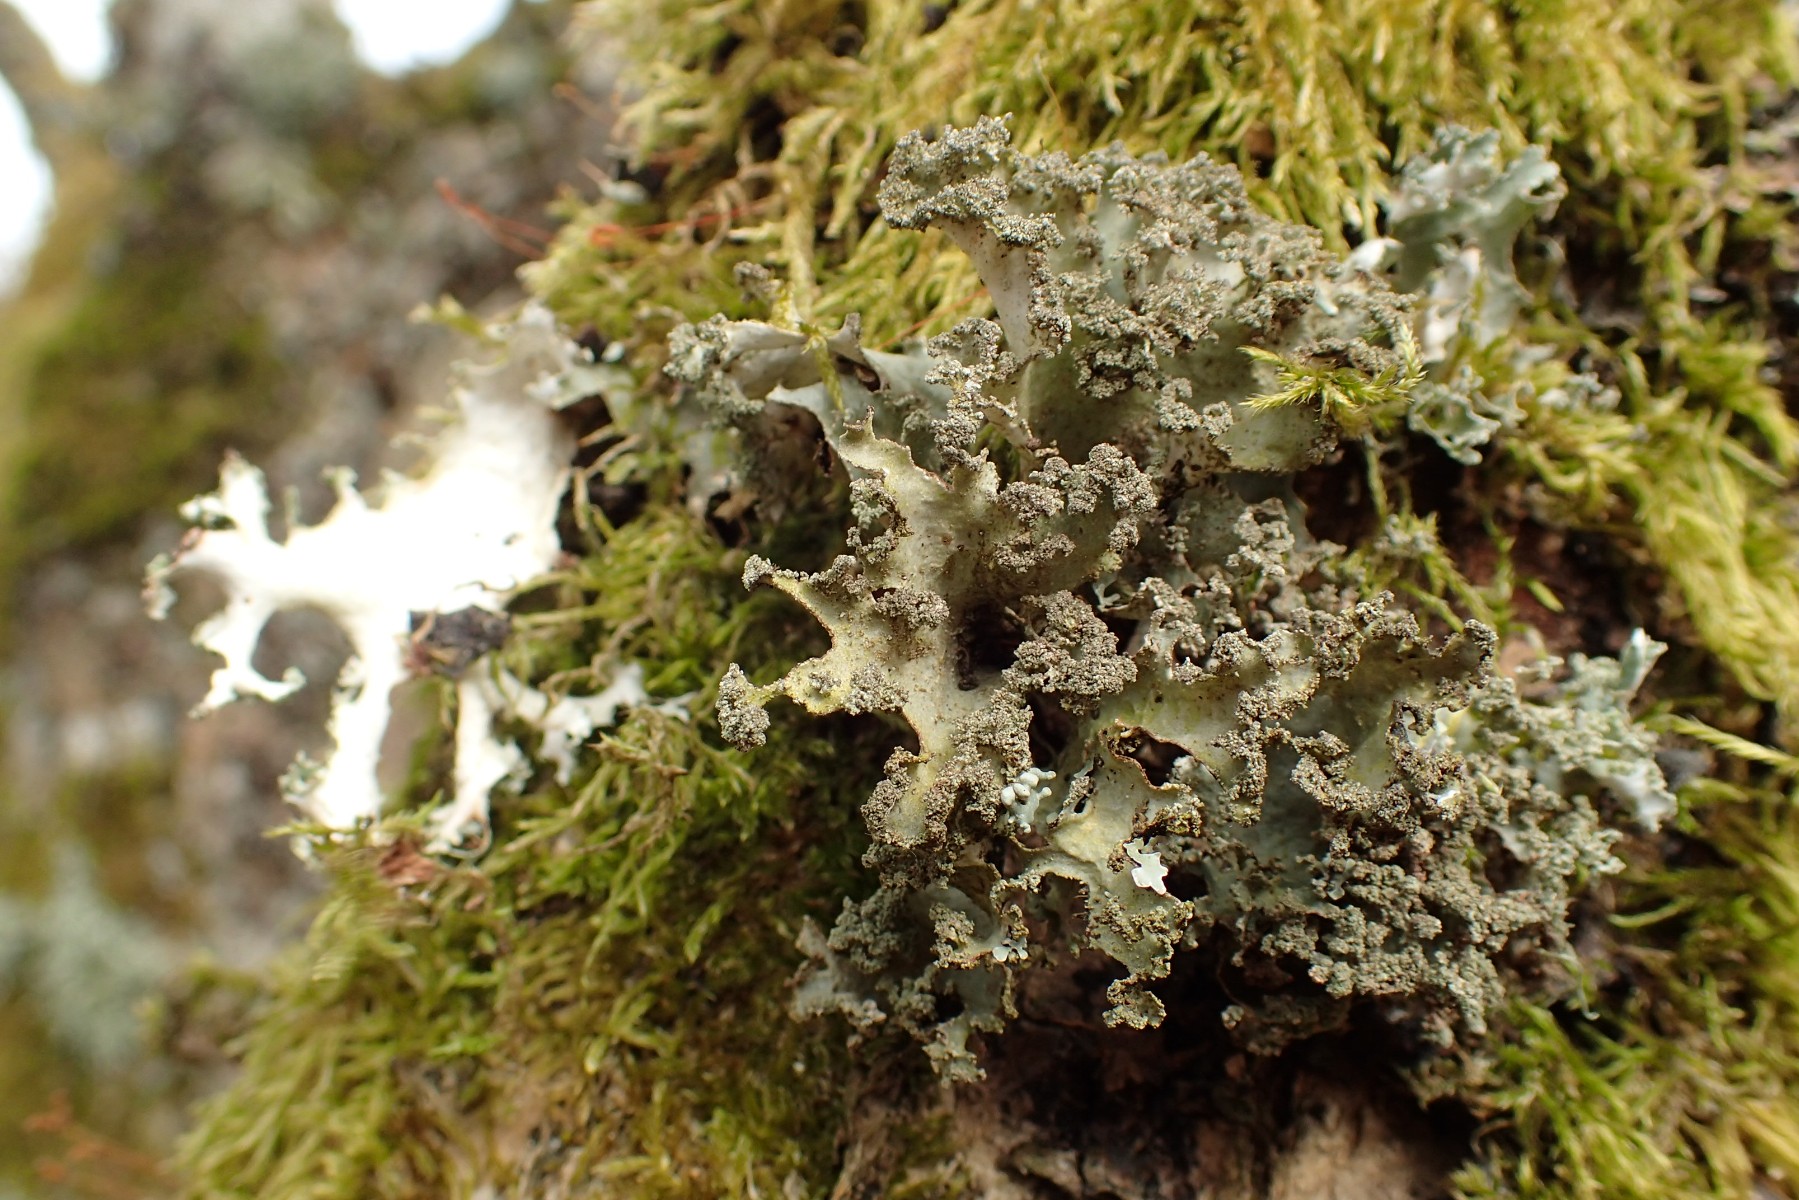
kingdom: Fungi
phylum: Ascomycota
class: Lecanoromycetes
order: Lecanorales
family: Parmeliaceae
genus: Platismatia
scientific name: Platismatia glauca
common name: blågrå papirlav
